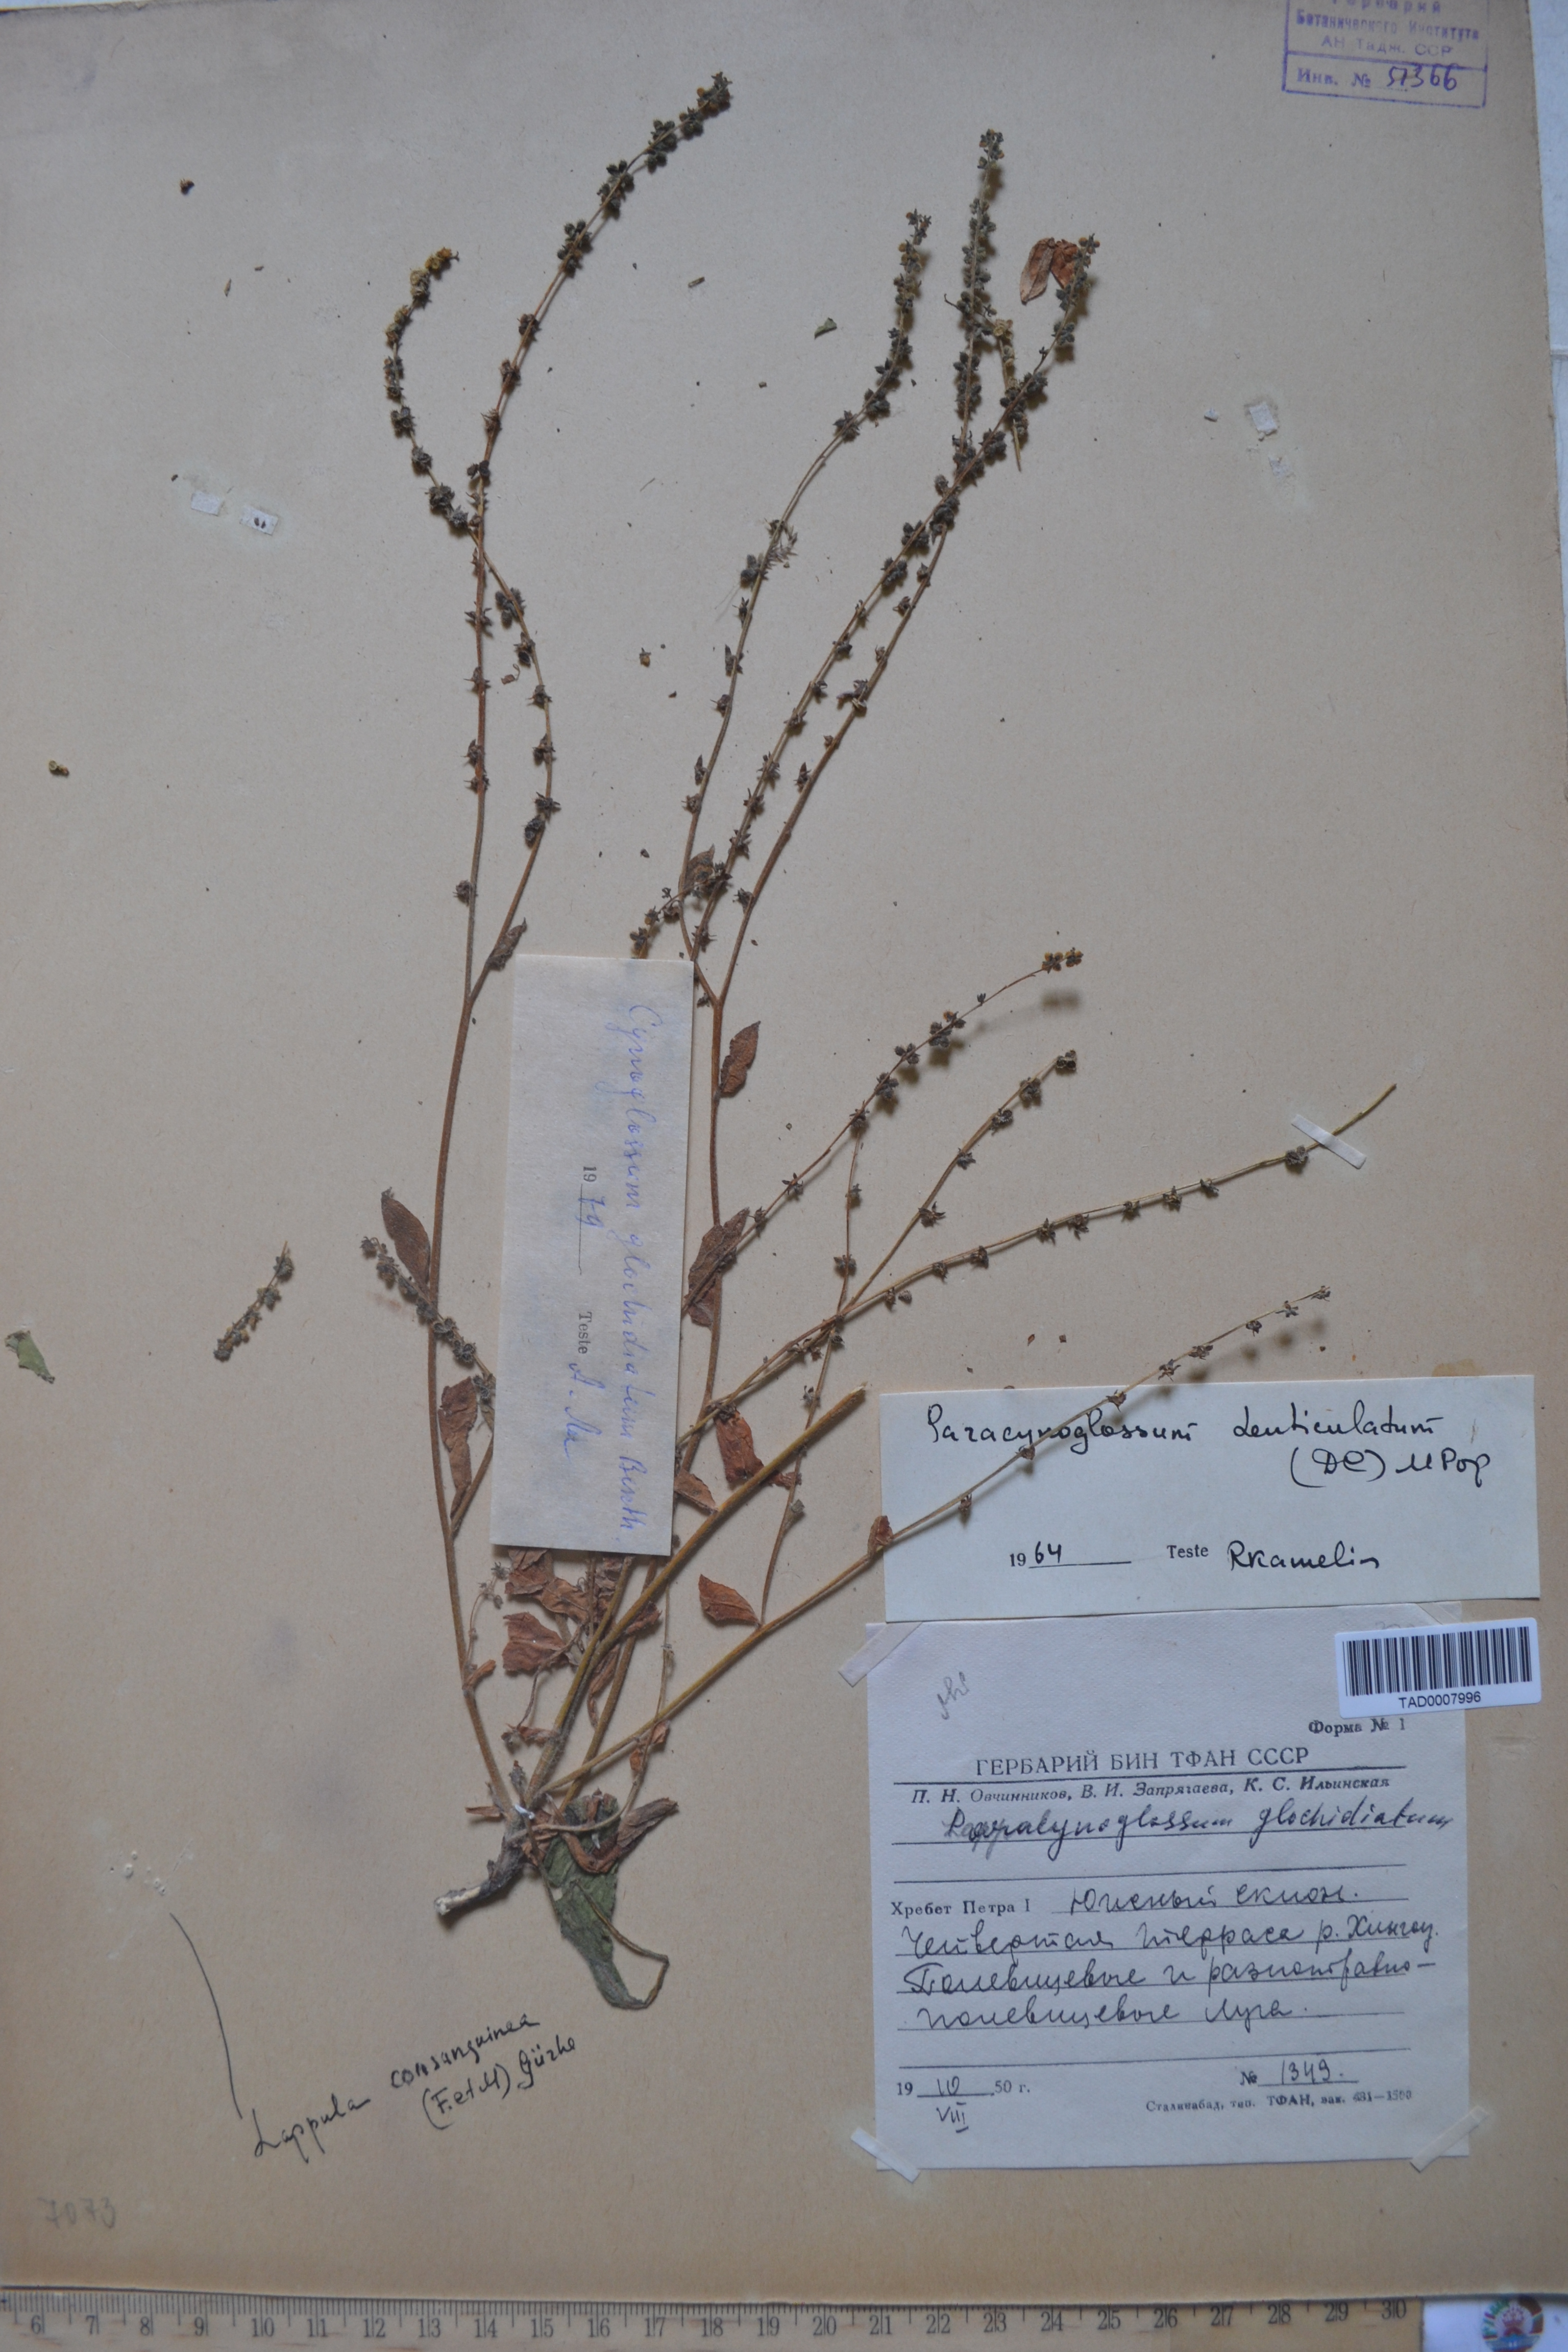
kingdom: Plantae
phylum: Tracheophyta
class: Magnoliopsida
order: Boraginales
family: Boraginaceae
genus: Paracynoglossum
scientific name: Paracynoglossum glochidiatum
